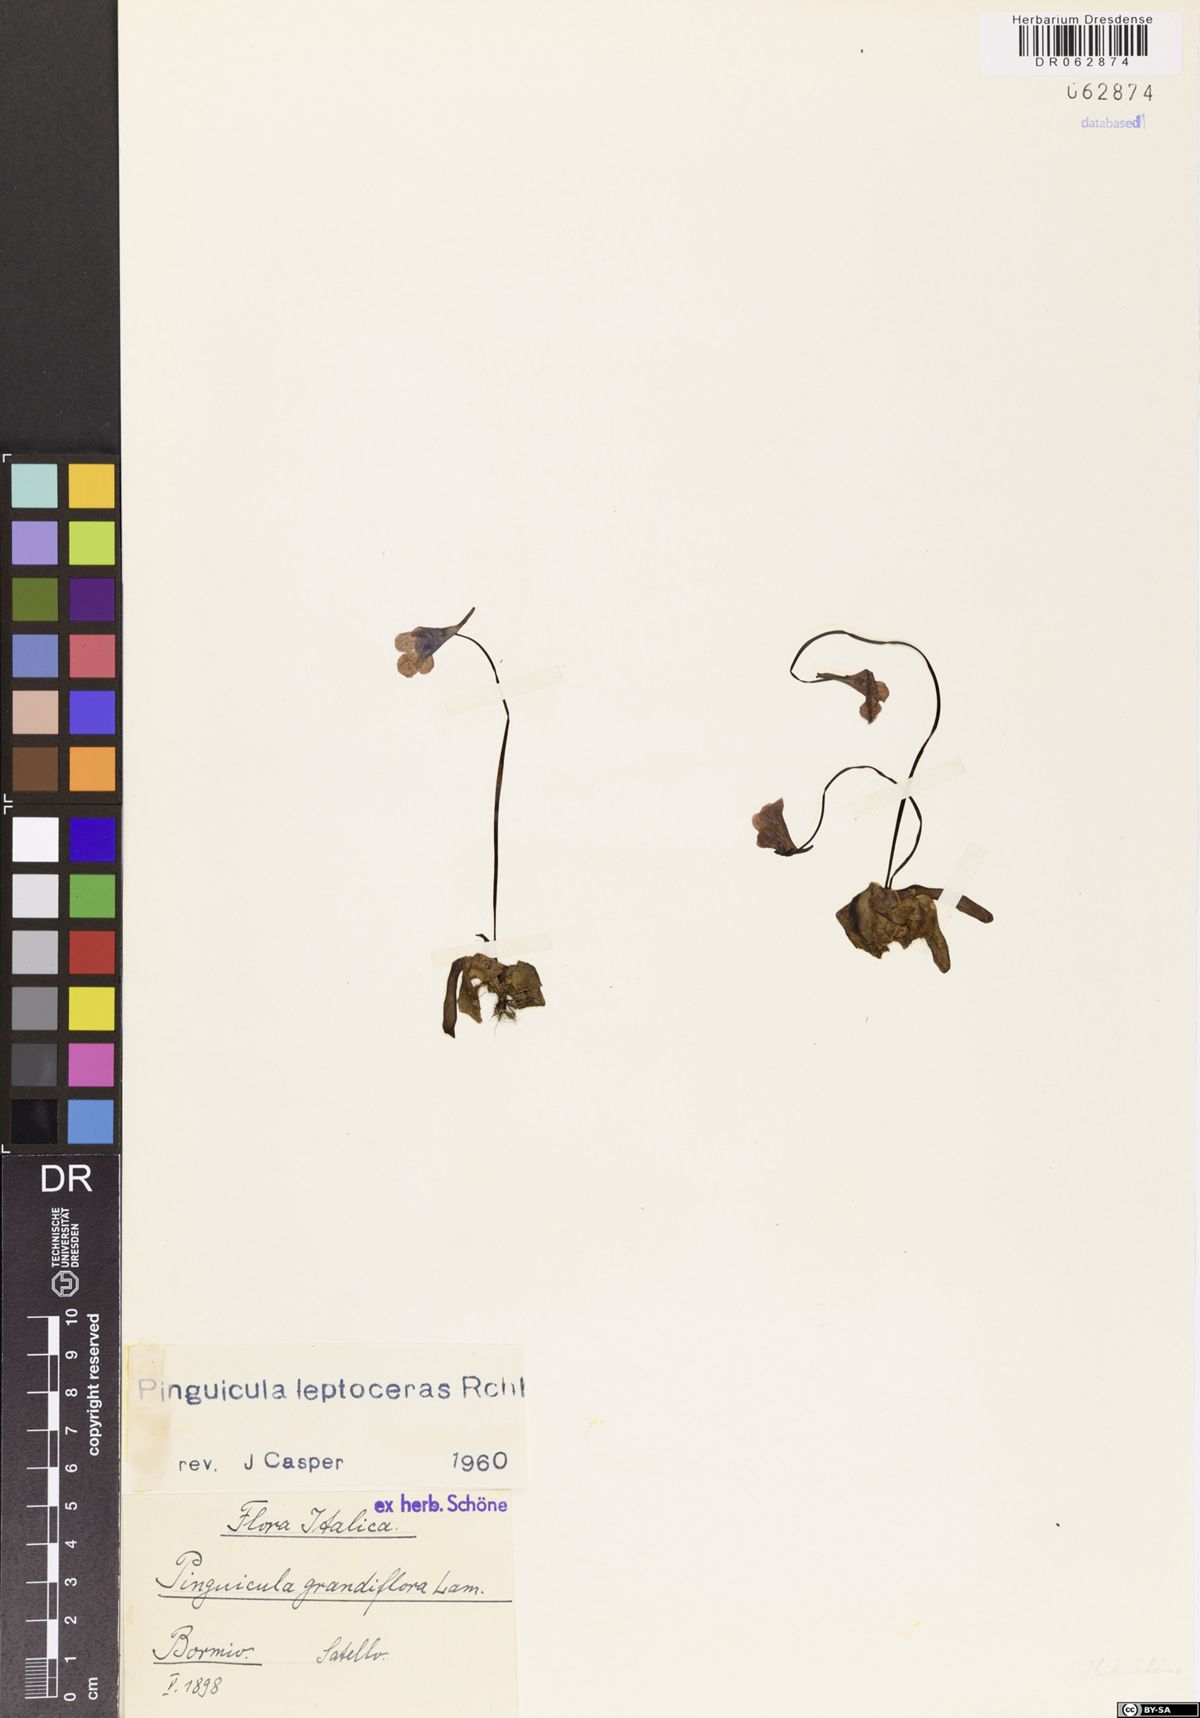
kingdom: Plantae
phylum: Tracheophyta
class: Magnoliopsida
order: Lamiales
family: Lentibulariaceae
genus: Pinguicula
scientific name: Pinguicula leptoceras
